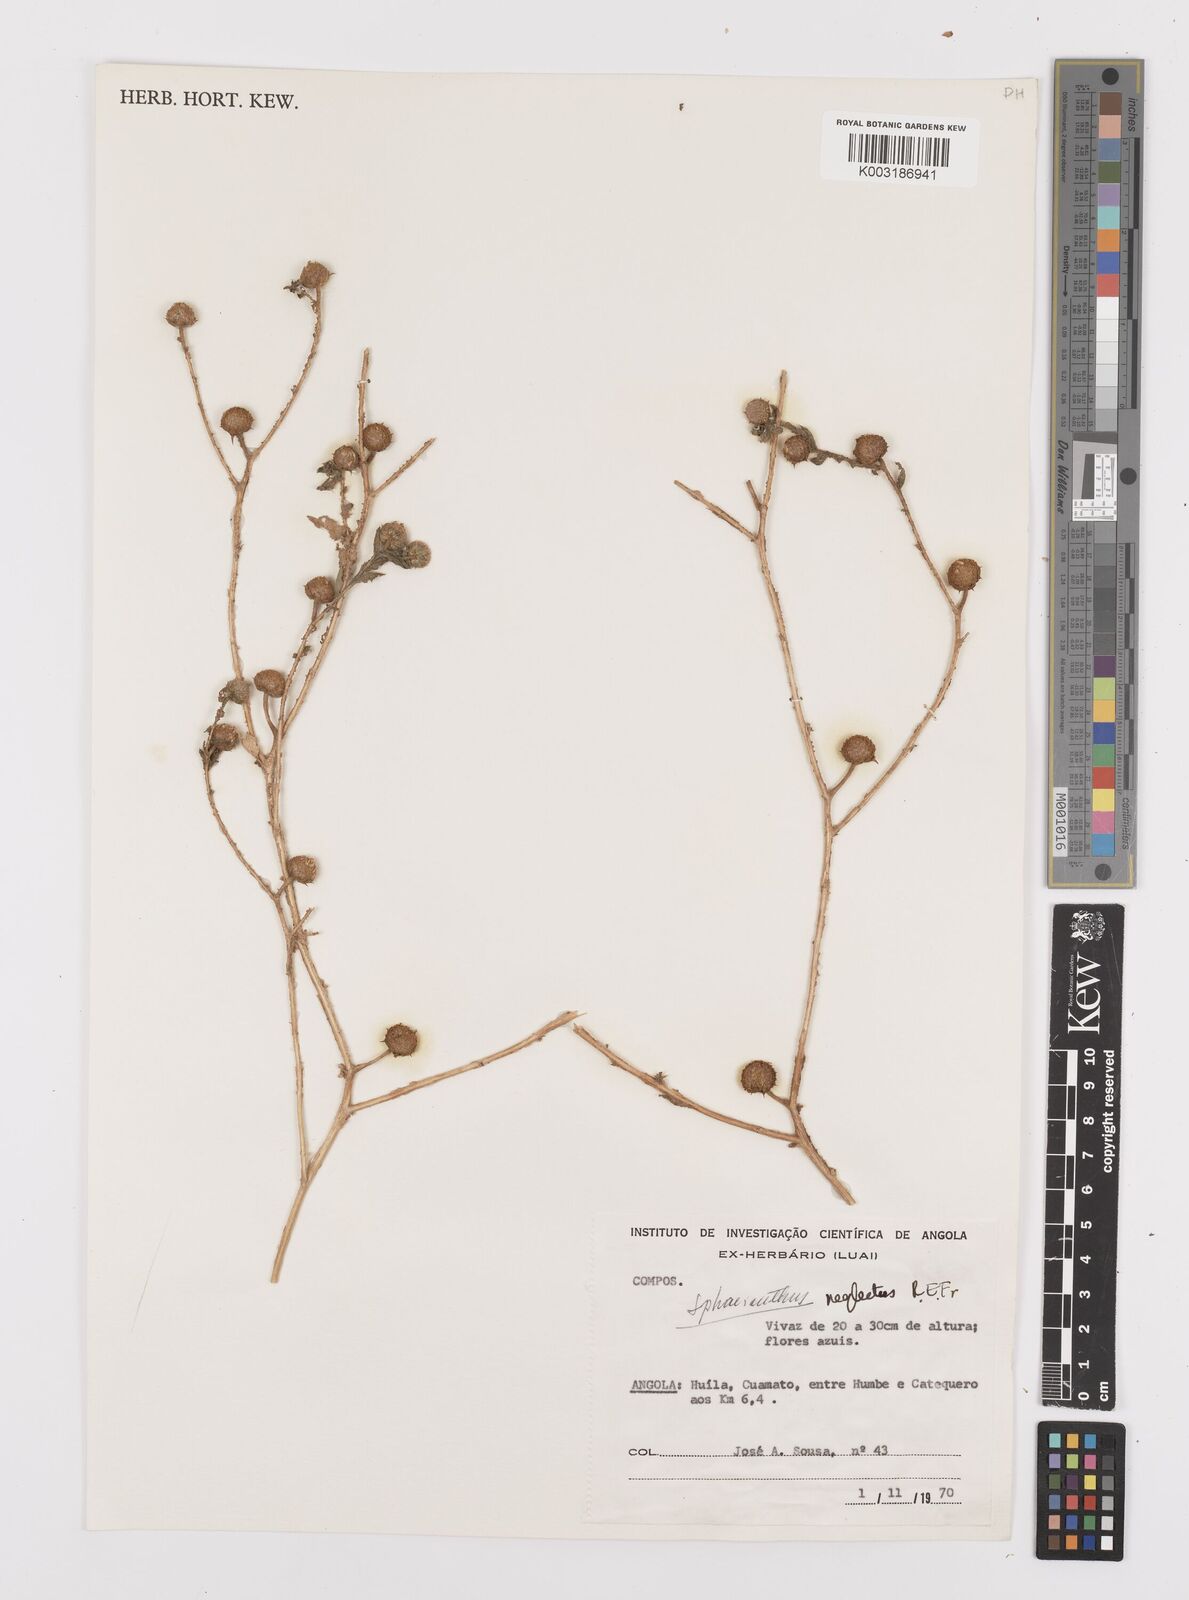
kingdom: Plantae
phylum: Tracheophyta
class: Magnoliopsida
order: Asterales
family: Asteraceae
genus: Sphaeranthus
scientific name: Sphaeranthus neglectus
